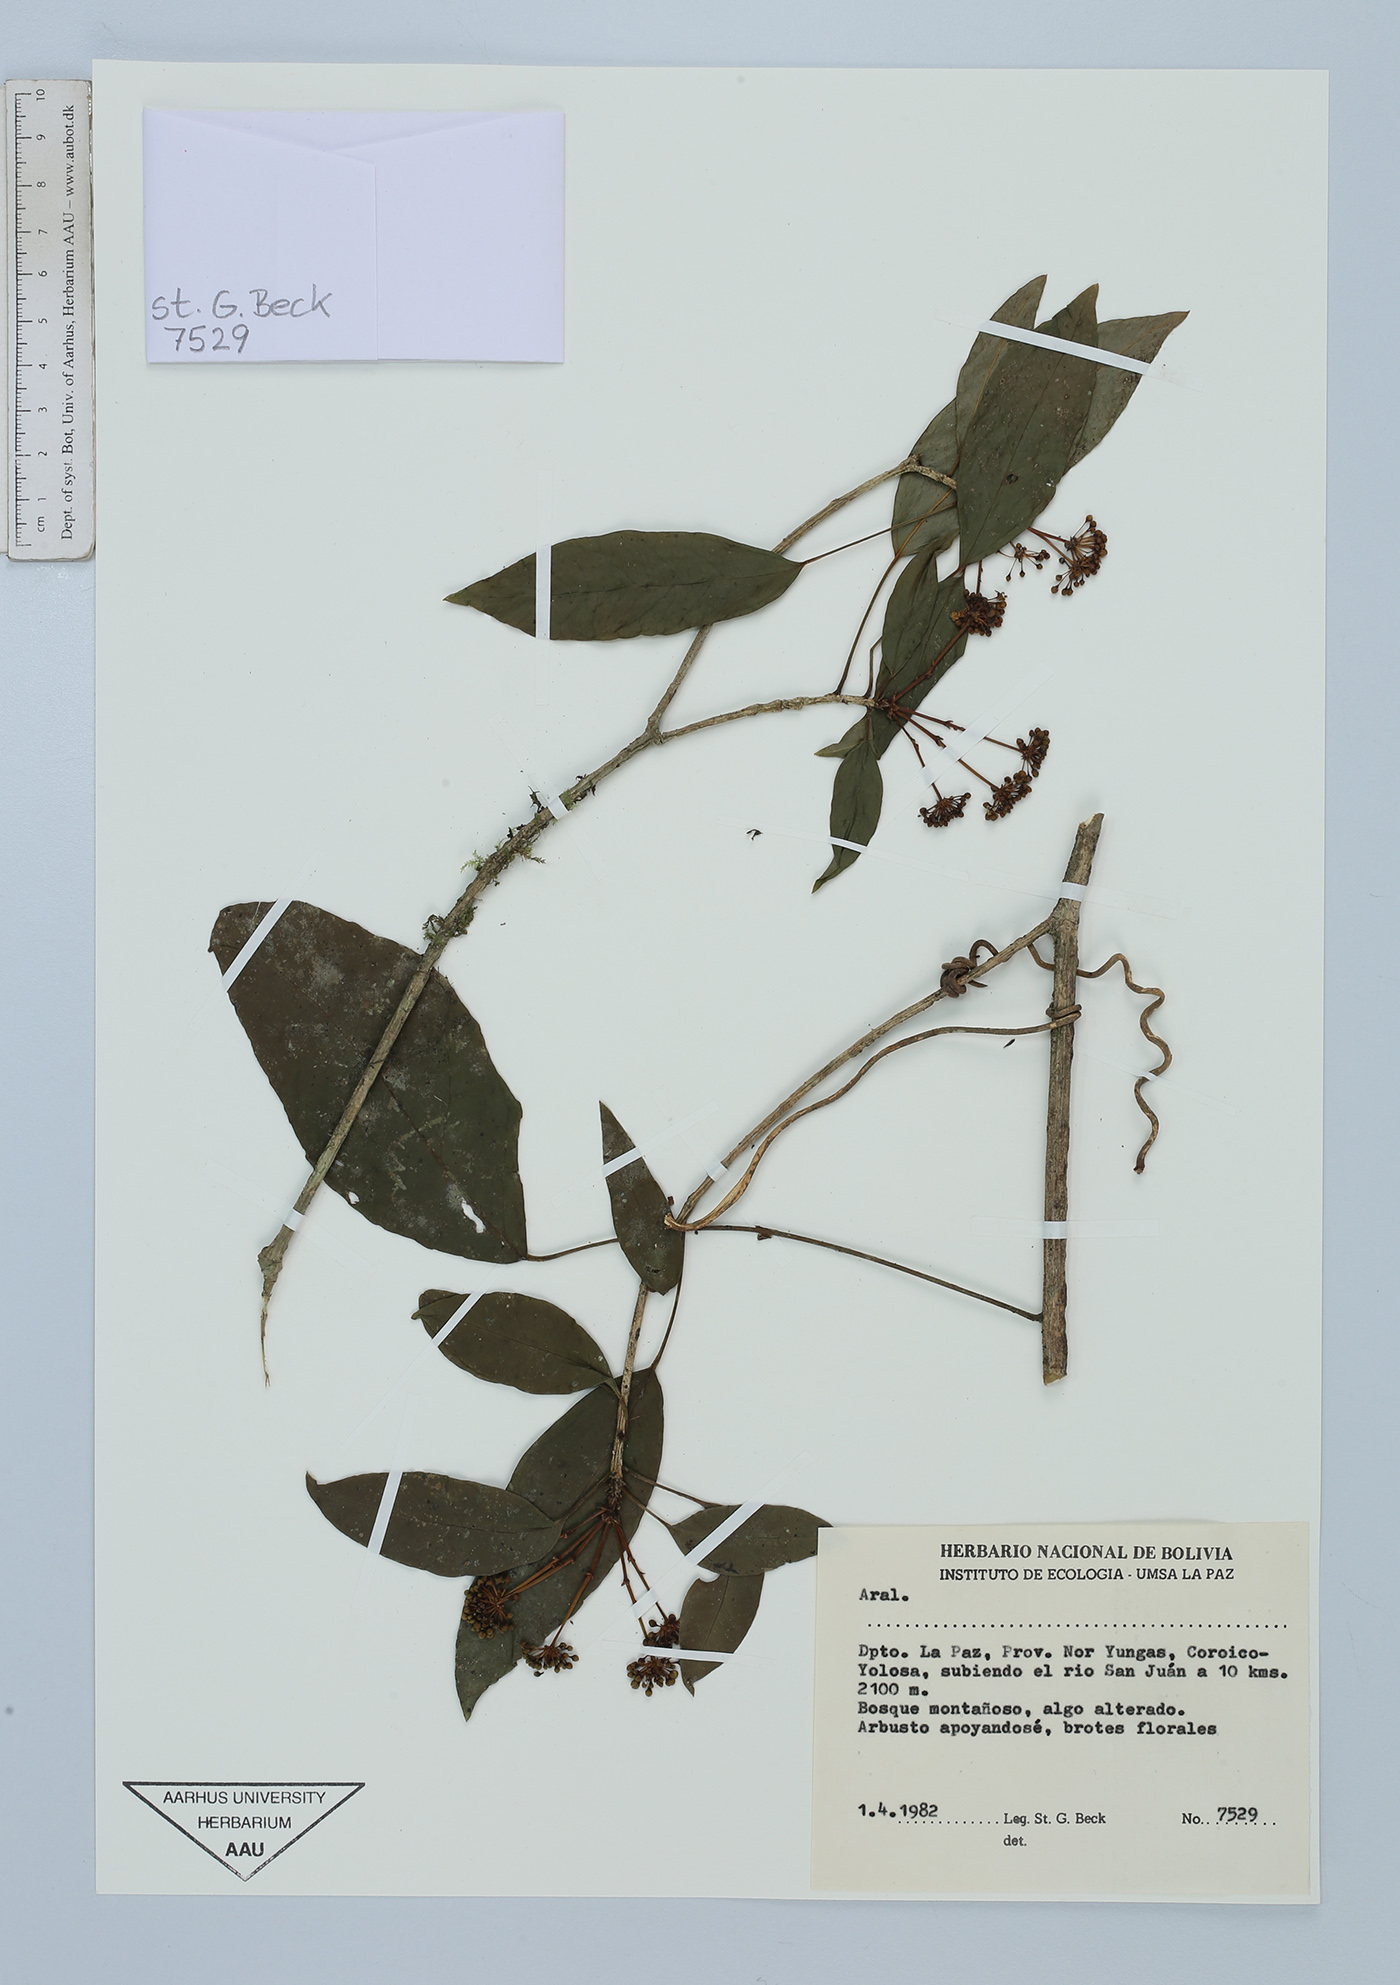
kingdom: Plantae
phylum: Tracheophyta
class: Magnoliopsida
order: Apiales
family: Araliaceae
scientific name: Araliaceae
